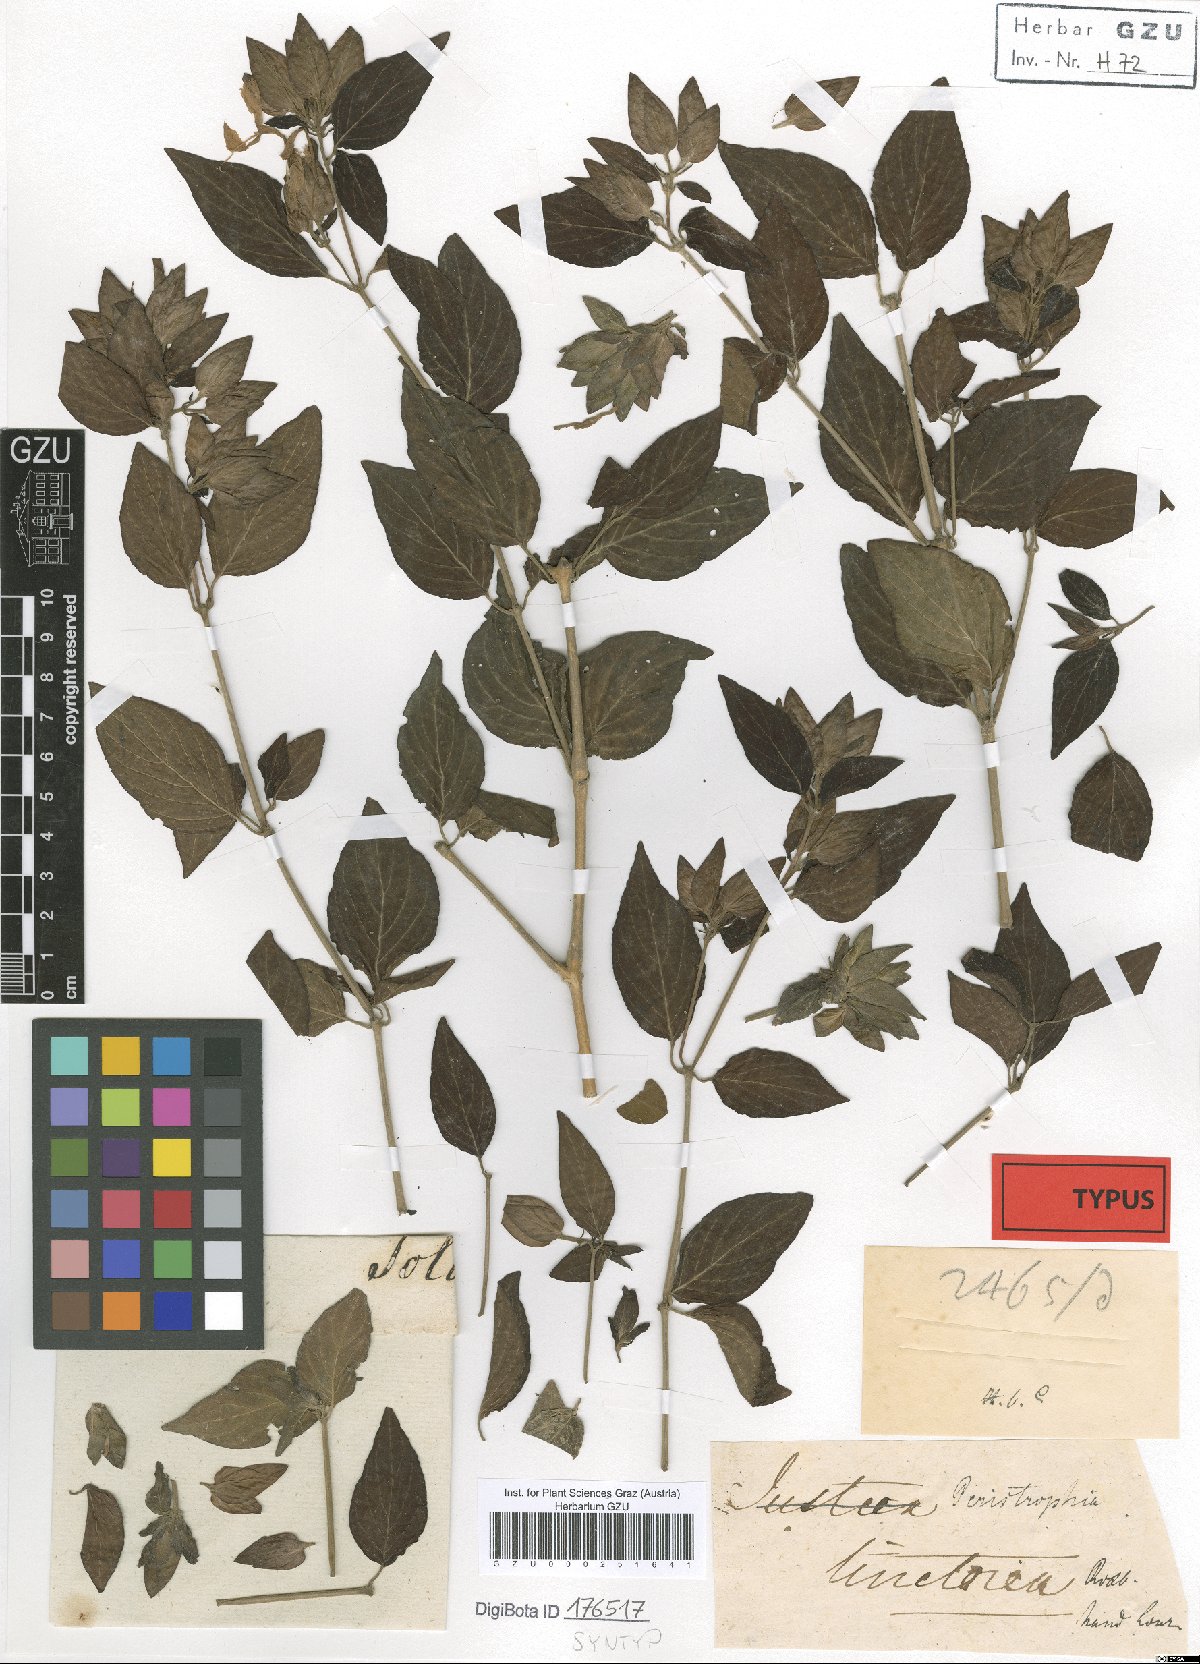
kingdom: Plantae
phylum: Tracheophyta
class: Magnoliopsida
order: Lamiales
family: Acanthaceae
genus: Dicliptera
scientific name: Dicliptera tinctoria
